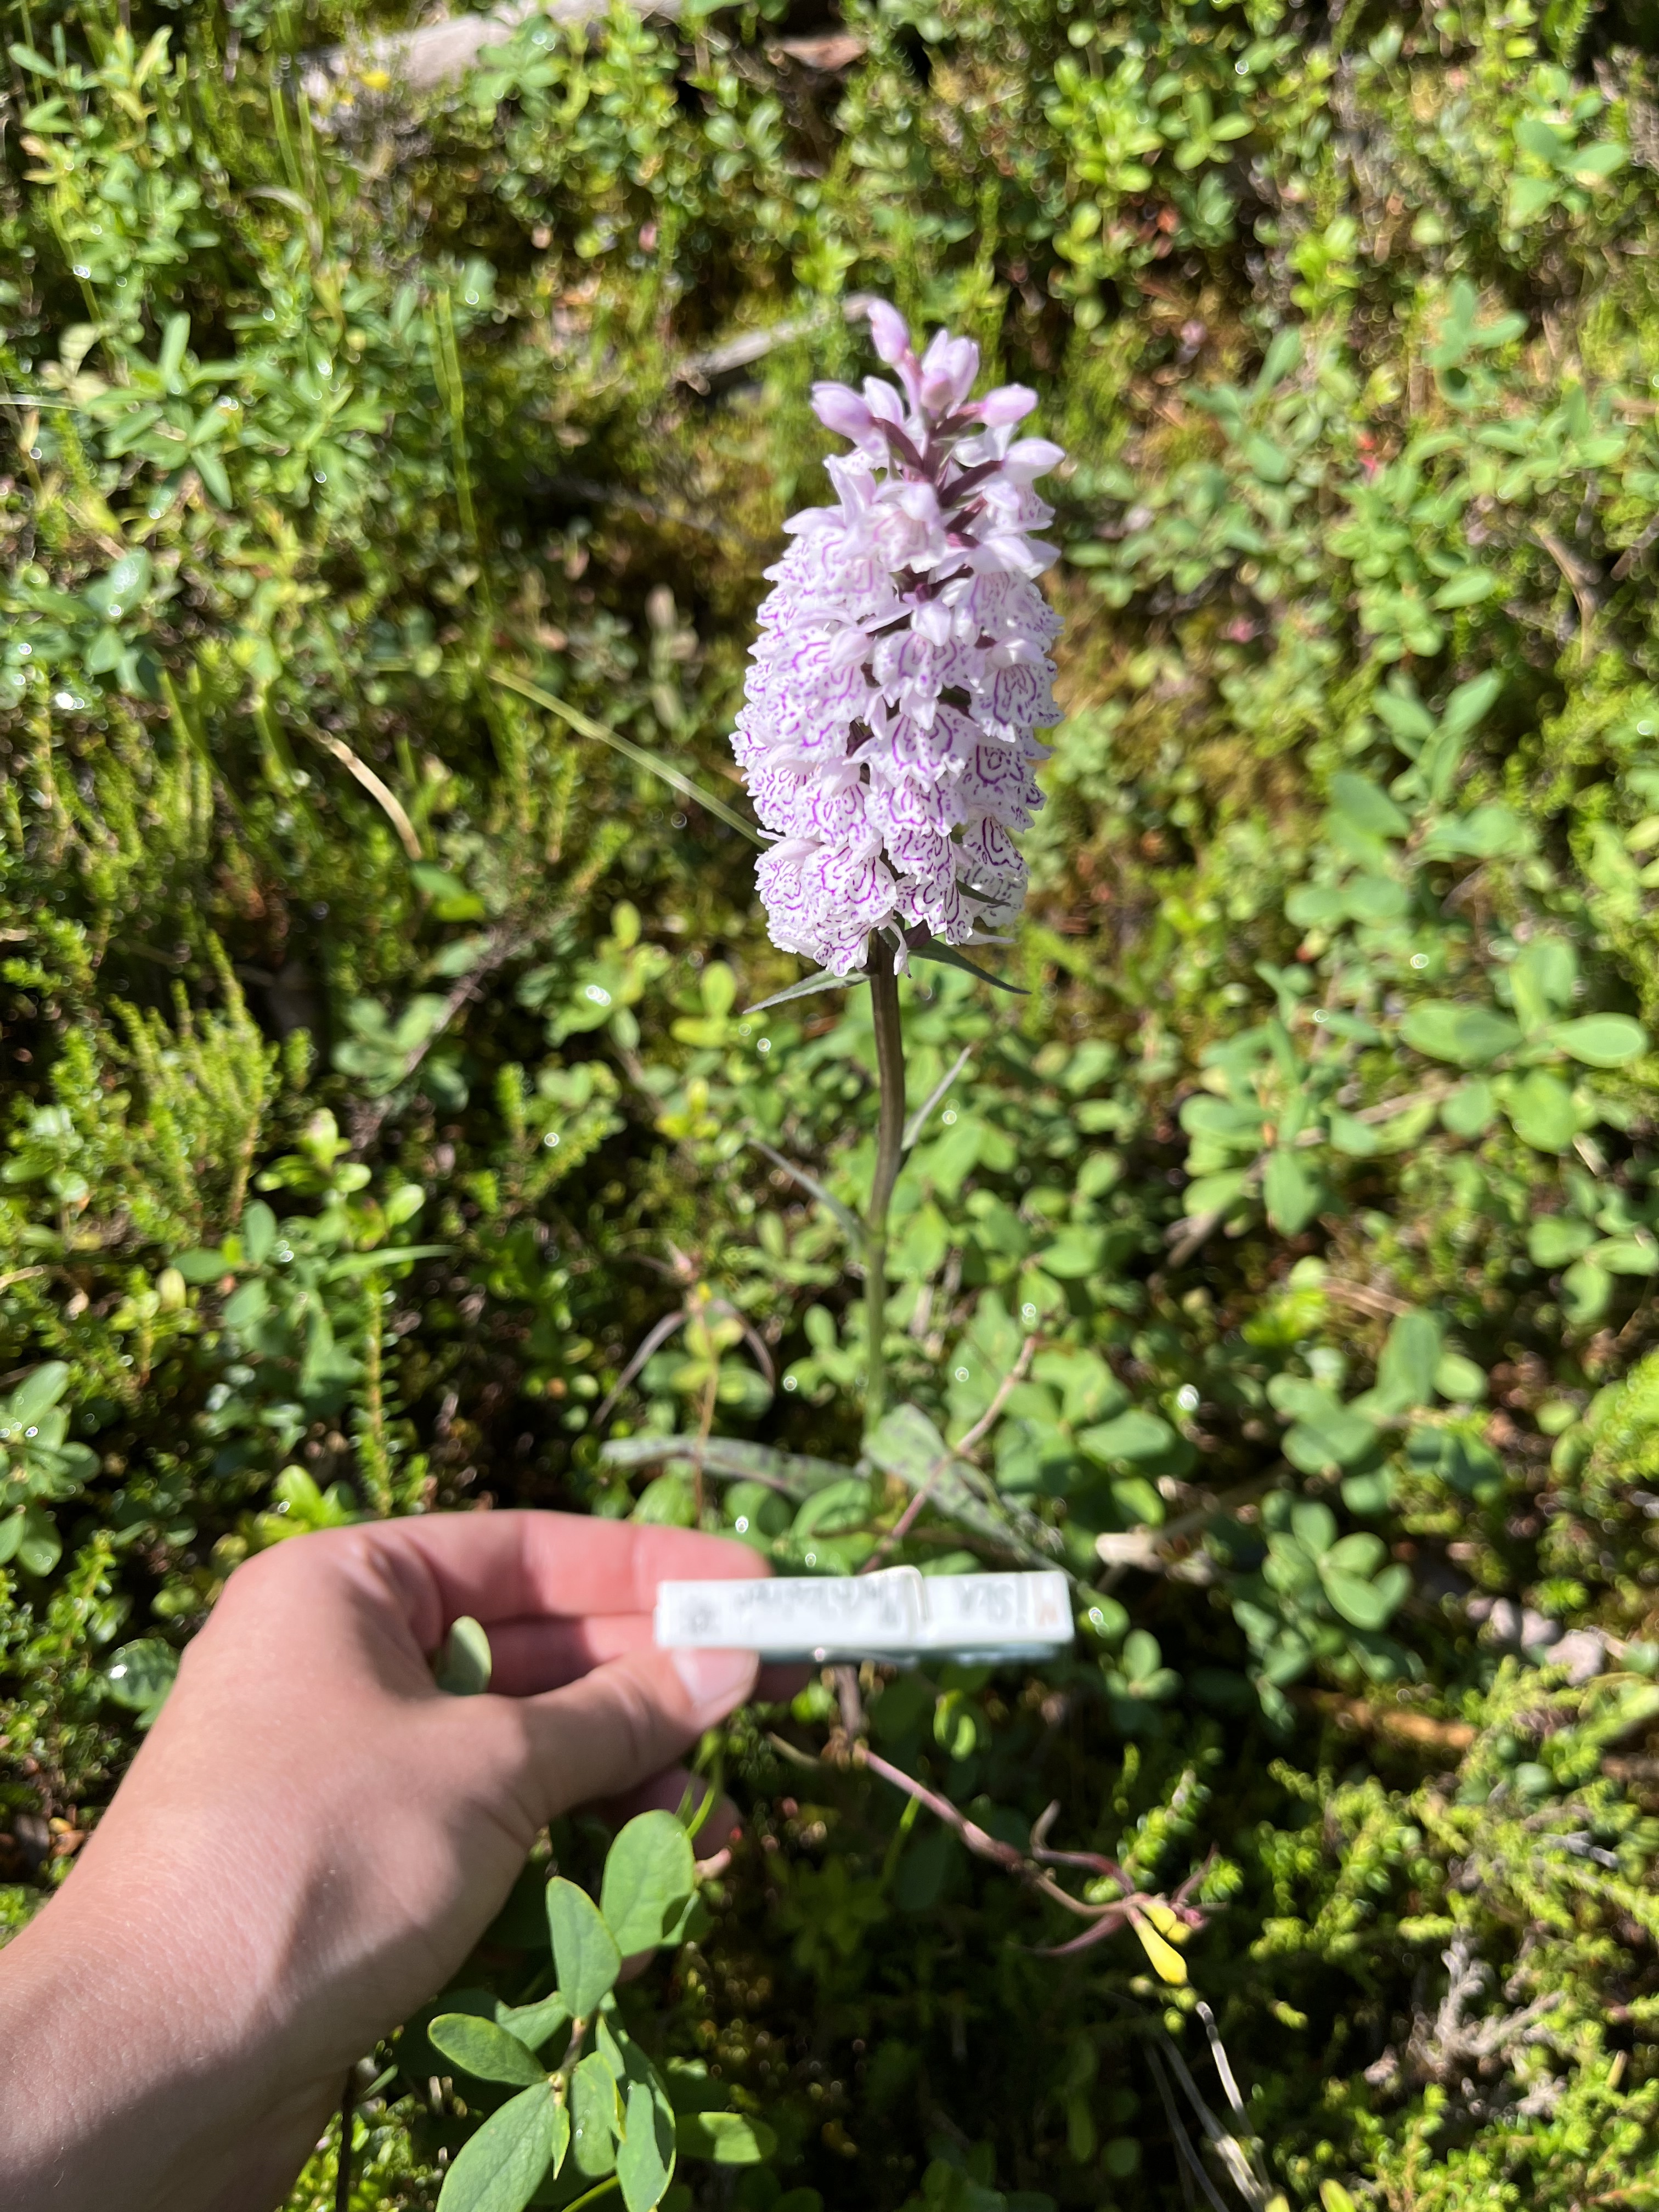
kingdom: Plantae
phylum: Tracheophyta
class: Liliopsida
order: Asparagales
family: Orchidaceae
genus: Dactylorhiza
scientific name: Dactylorhiza maculata
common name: Heath spotted-orchid
